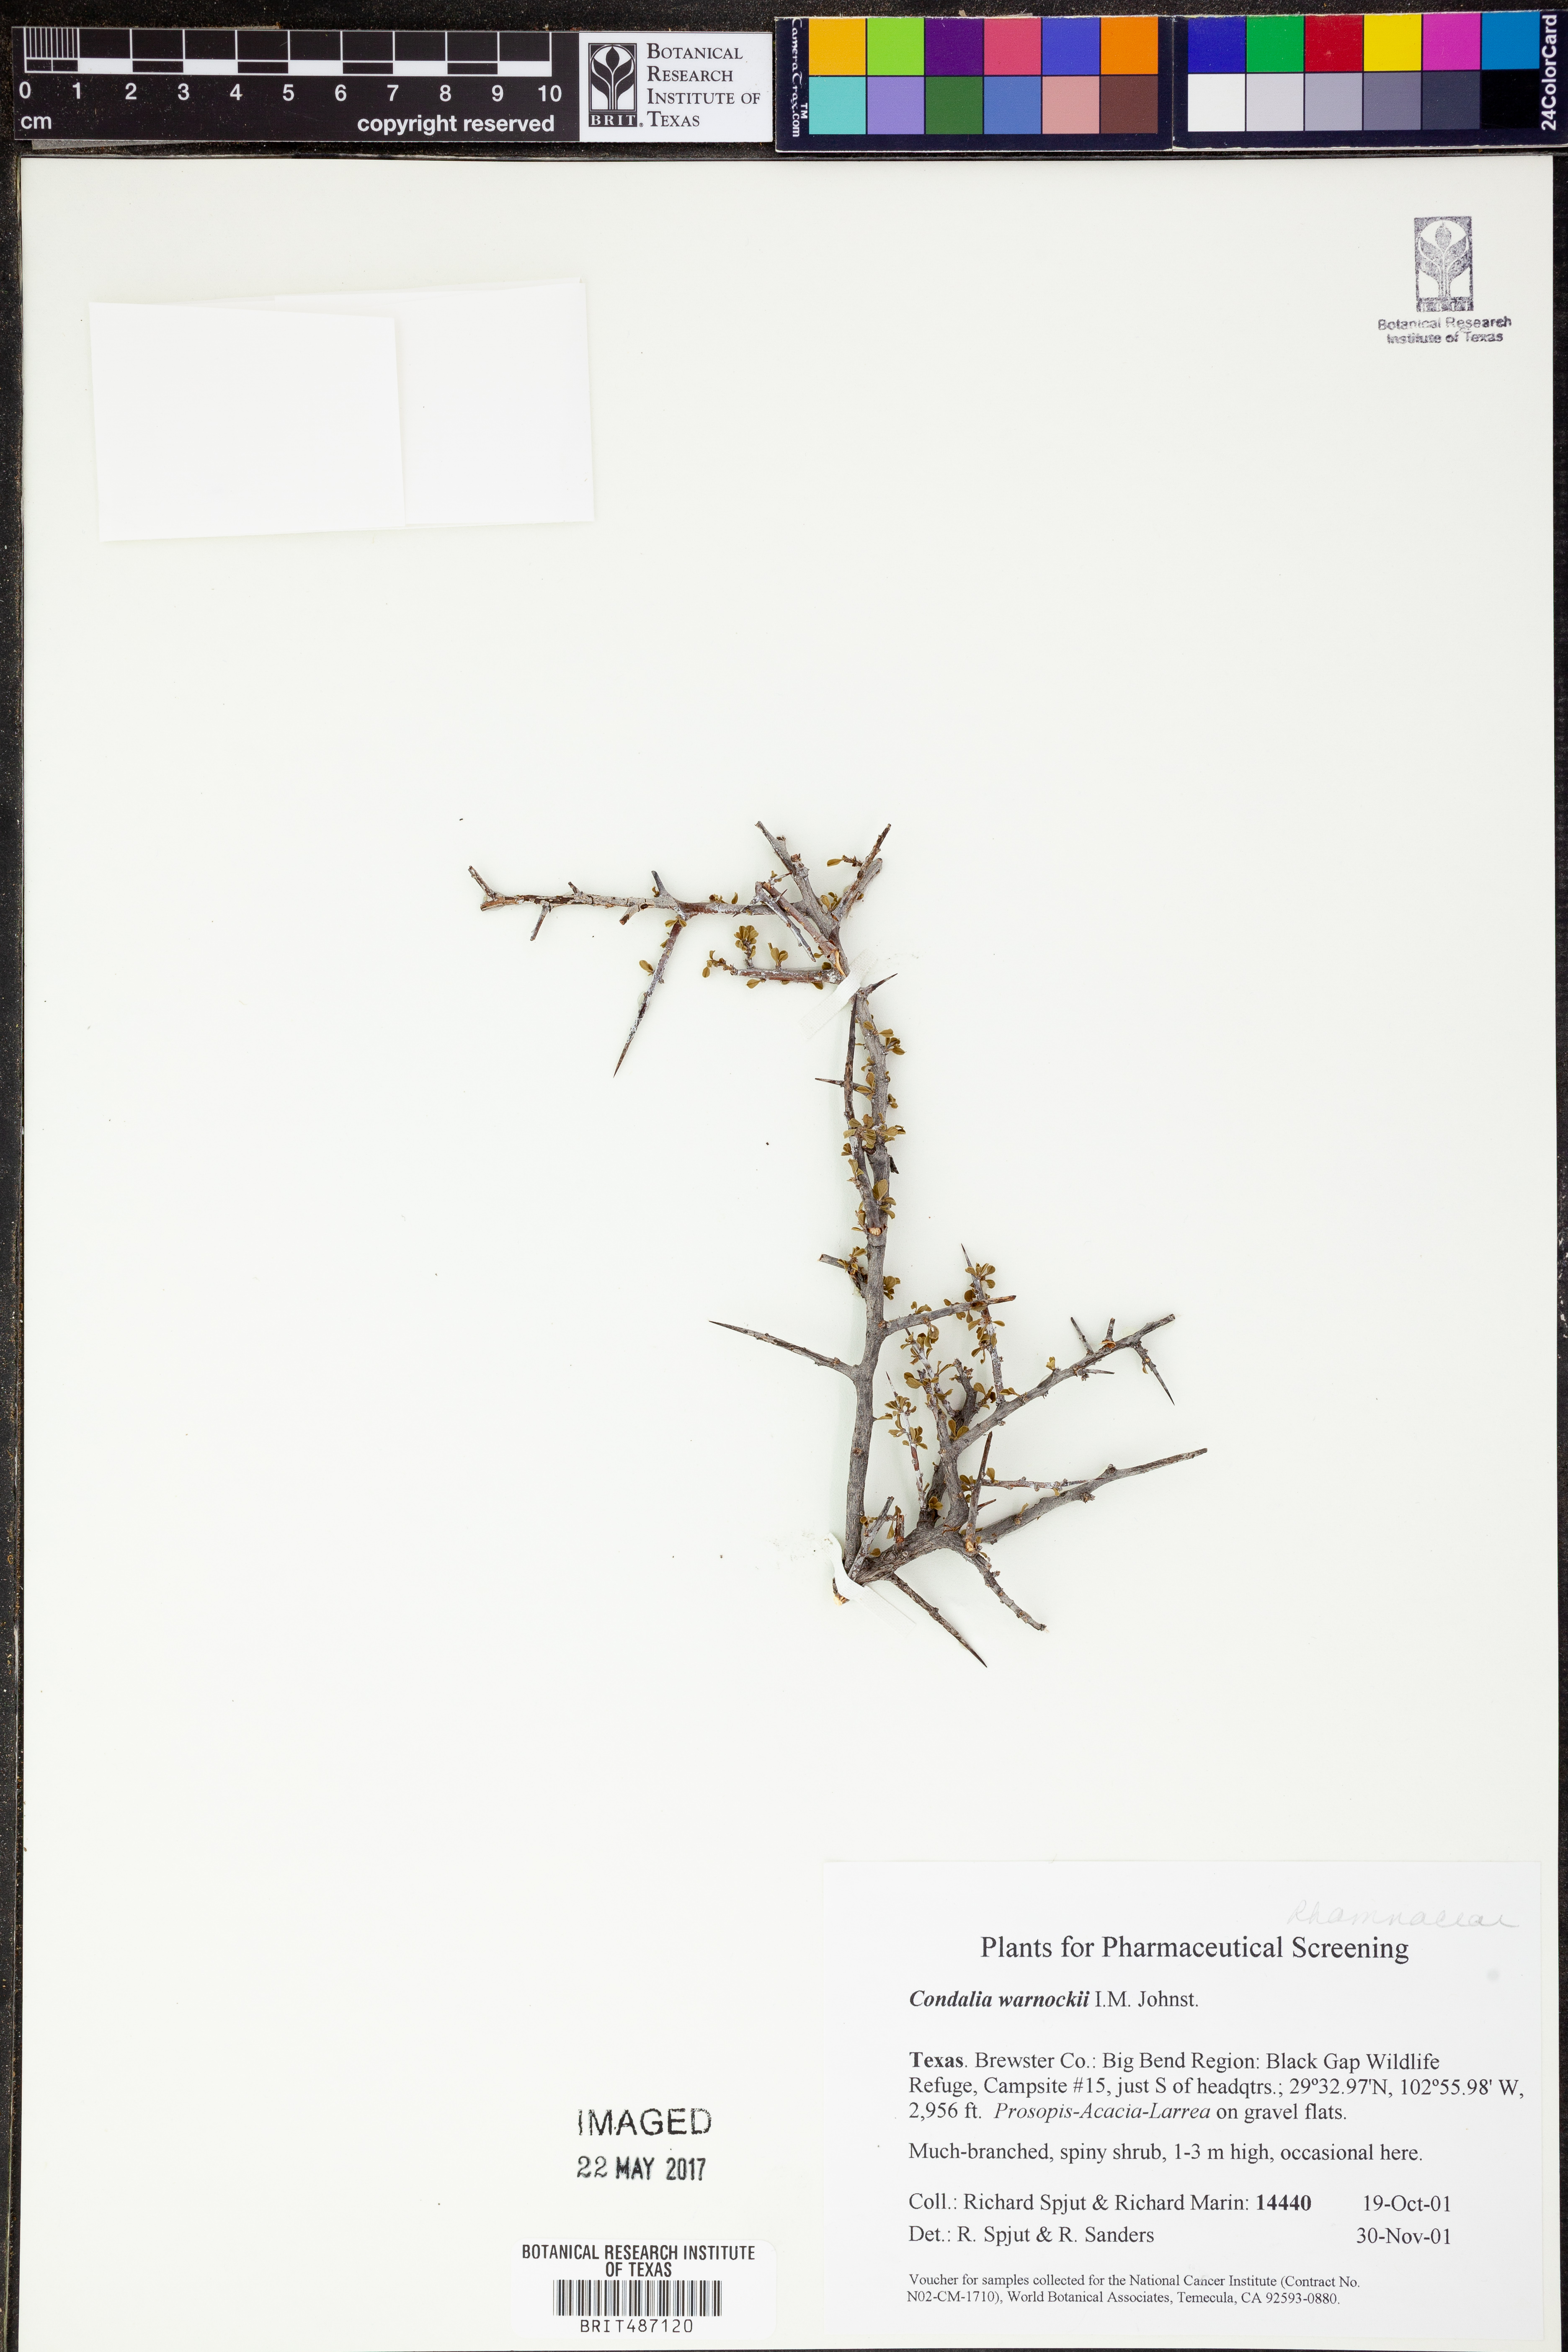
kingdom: Plantae
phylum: Tracheophyta
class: Magnoliopsida
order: Rosales
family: Rhamnaceae
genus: Condalia
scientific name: Condalia warnockii
